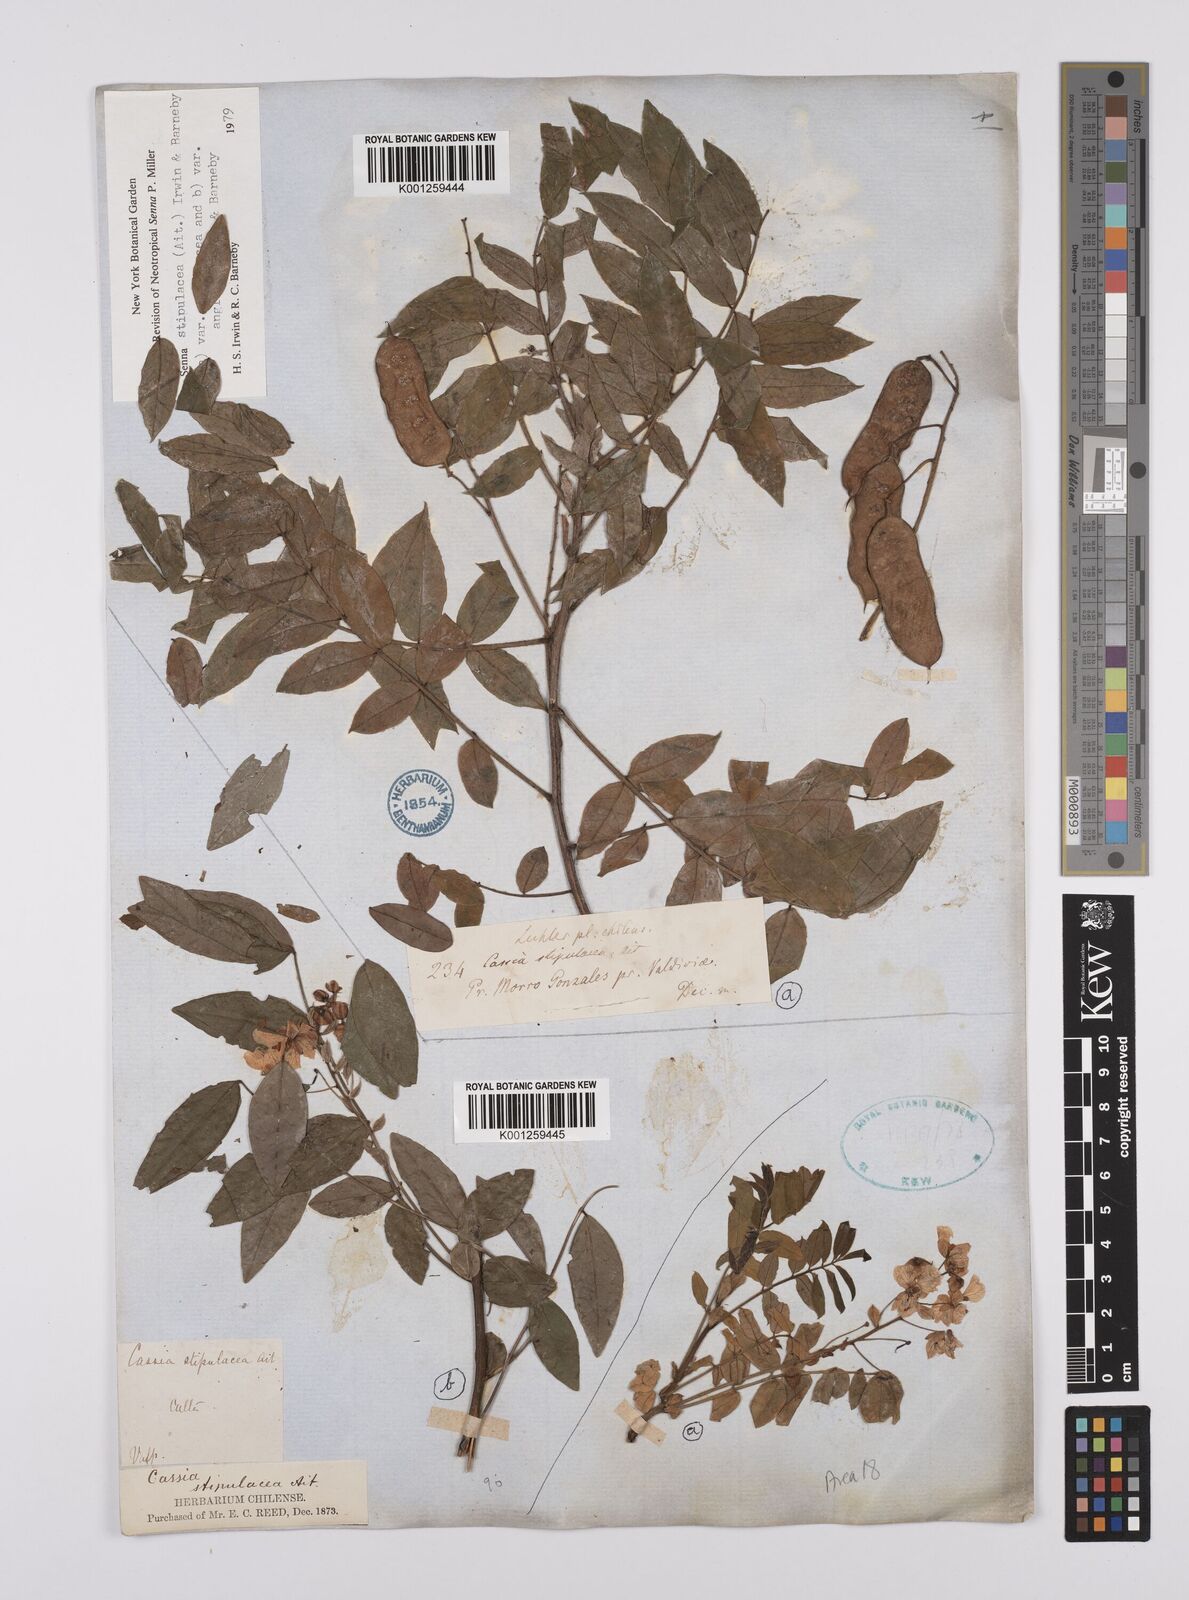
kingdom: Plantae
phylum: Tracheophyta
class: Magnoliopsida
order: Fabales
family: Fabaceae
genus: Senna
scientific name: Senna stipulacea
